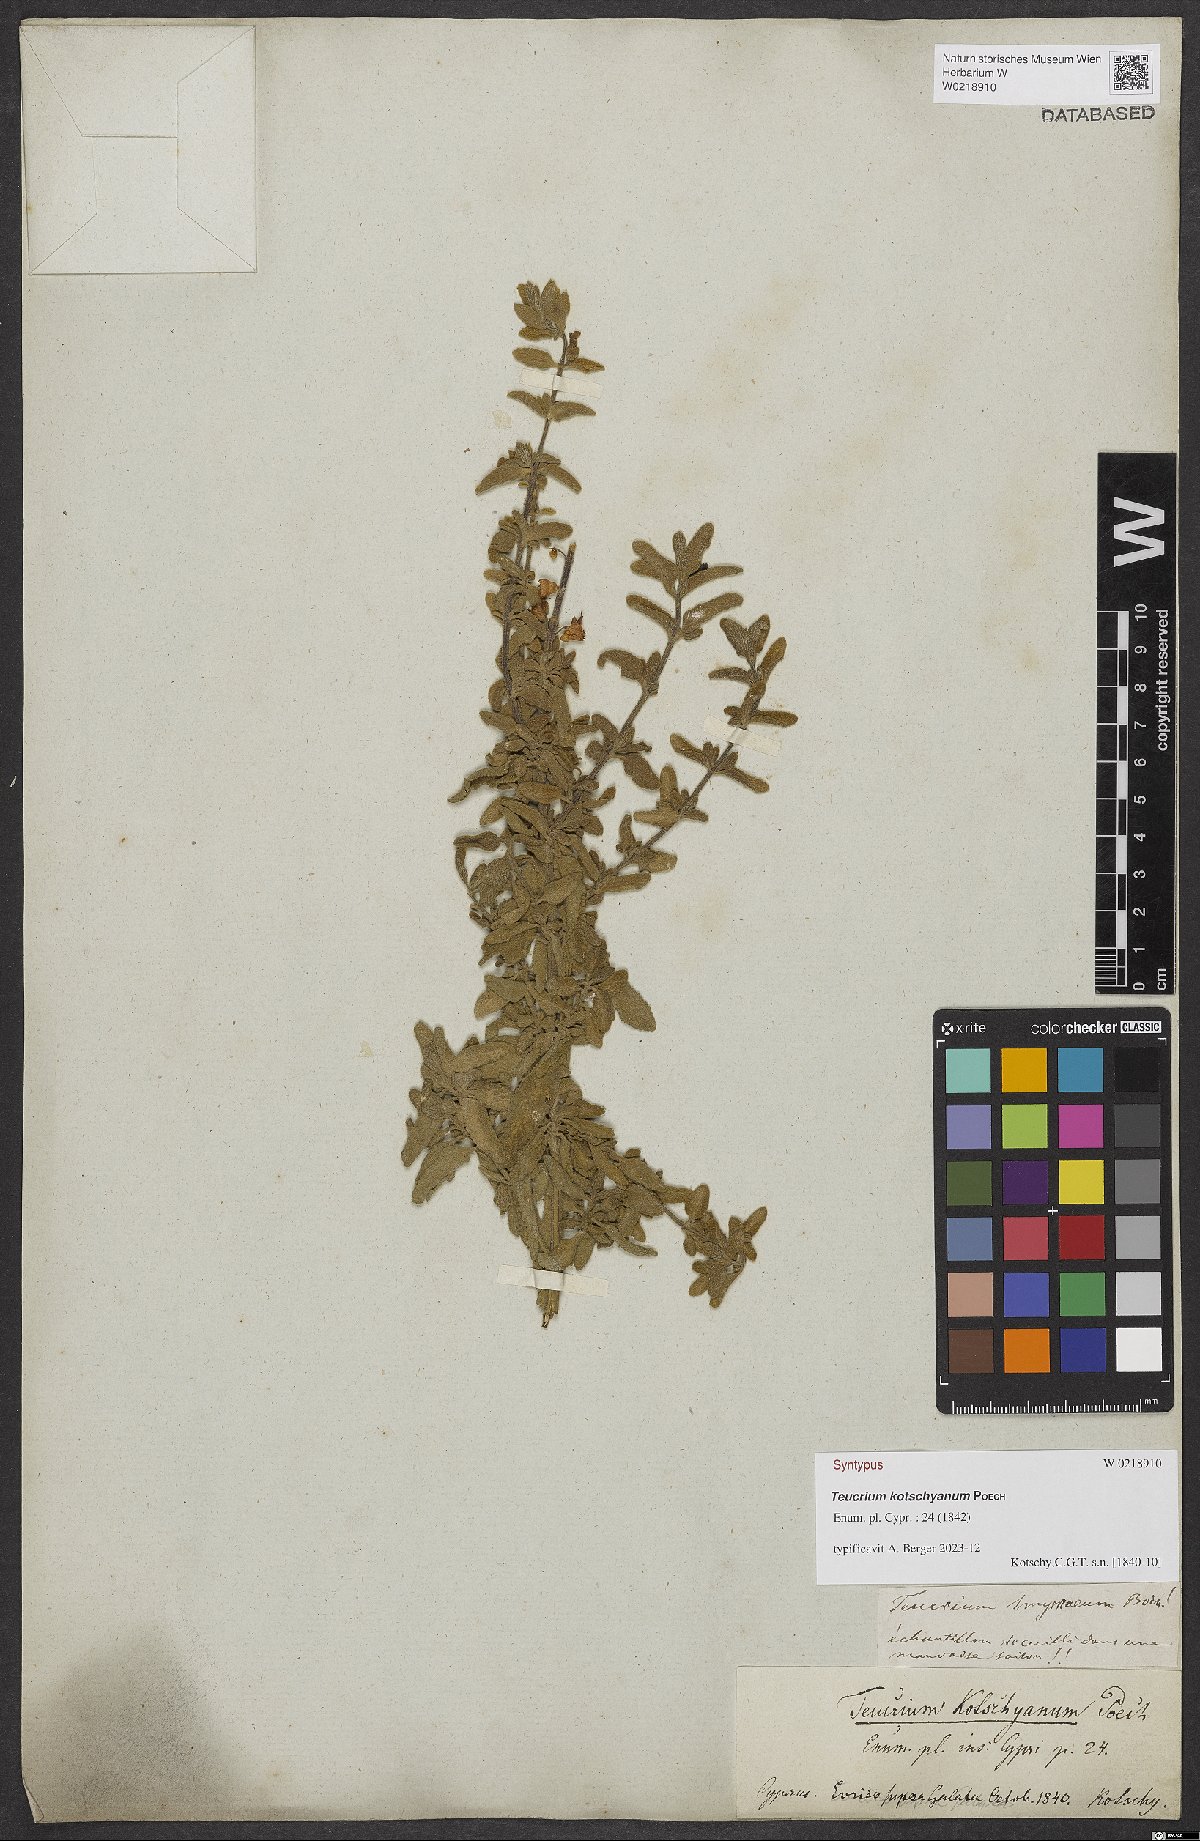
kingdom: Plantae
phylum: Tracheophyta
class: Magnoliopsida
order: Lamiales
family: Lamiaceae
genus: Teucrium
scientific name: Teucrium kotschyanum
